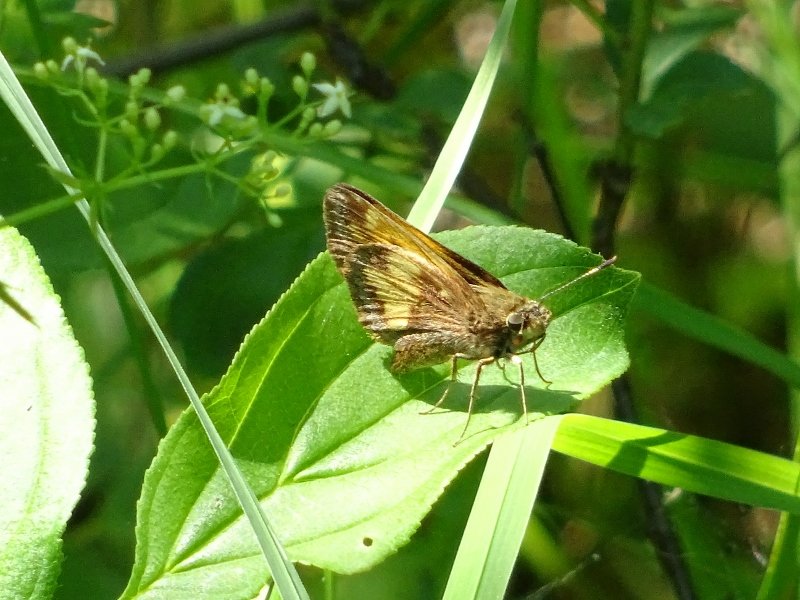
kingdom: Animalia
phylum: Arthropoda
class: Insecta
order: Lepidoptera
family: Hesperiidae
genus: Lon
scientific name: Lon hobomok
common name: Hobomok Skipper
